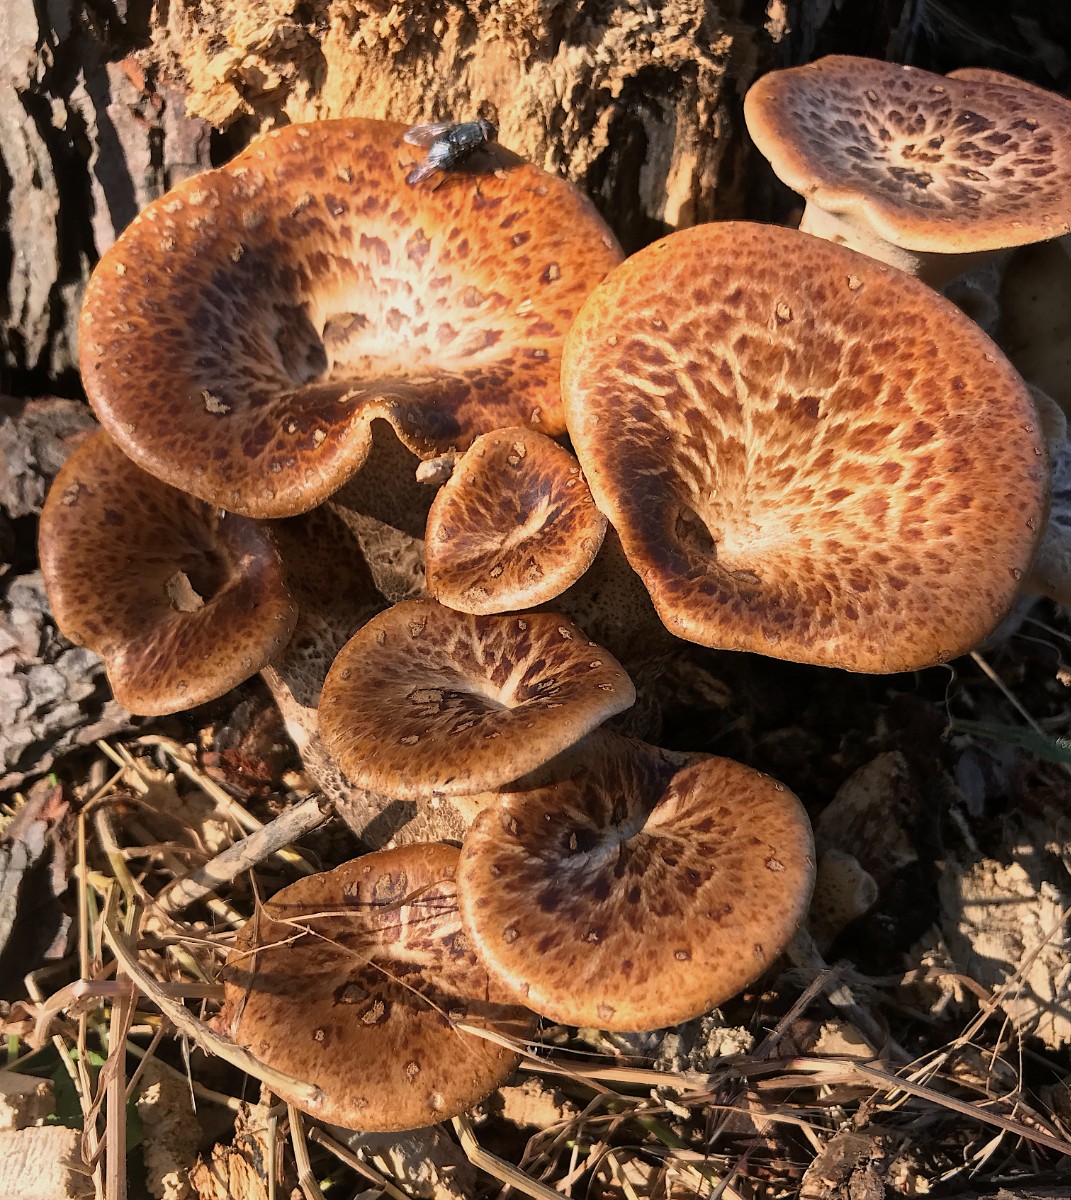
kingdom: Fungi
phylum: Basidiomycota
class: Agaricomycetes
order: Polyporales
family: Polyporaceae
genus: Cerioporus
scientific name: Cerioporus squamosus
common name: skællet stilkporesvamp
